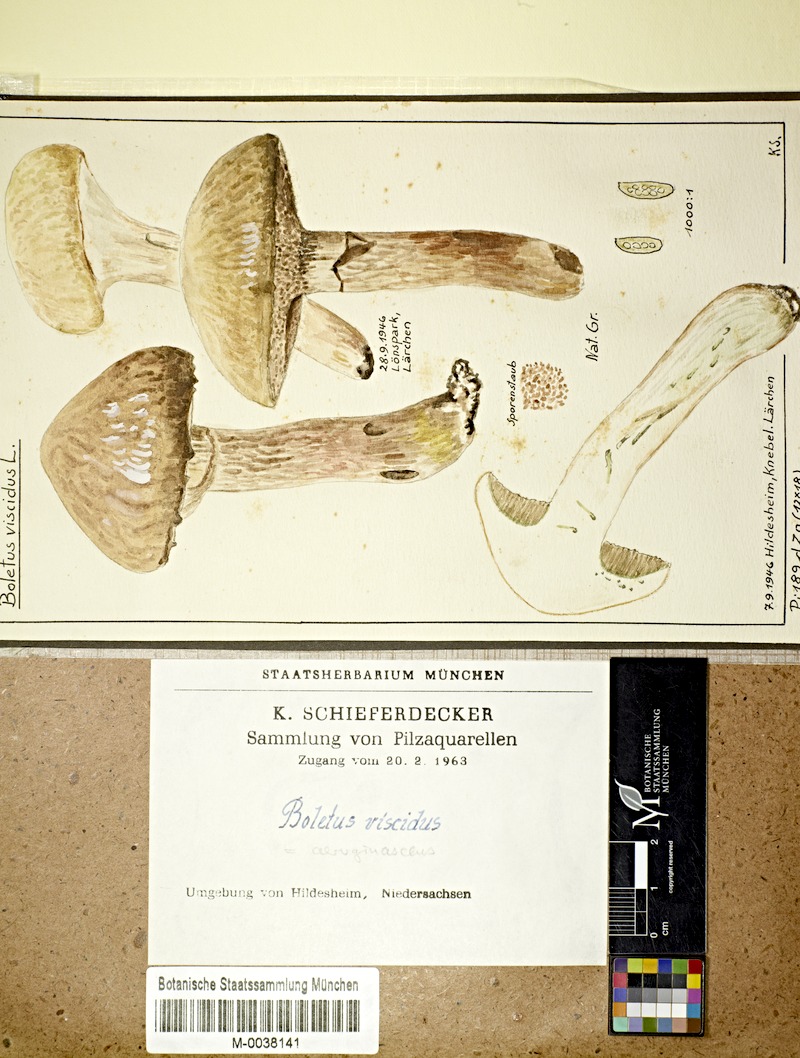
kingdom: Fungi
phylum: Basidiomycota
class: Agaricomycetes
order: Boletales
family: Suillaceae
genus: Suillus
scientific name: Suillus viscidus
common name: Sticky bolete
